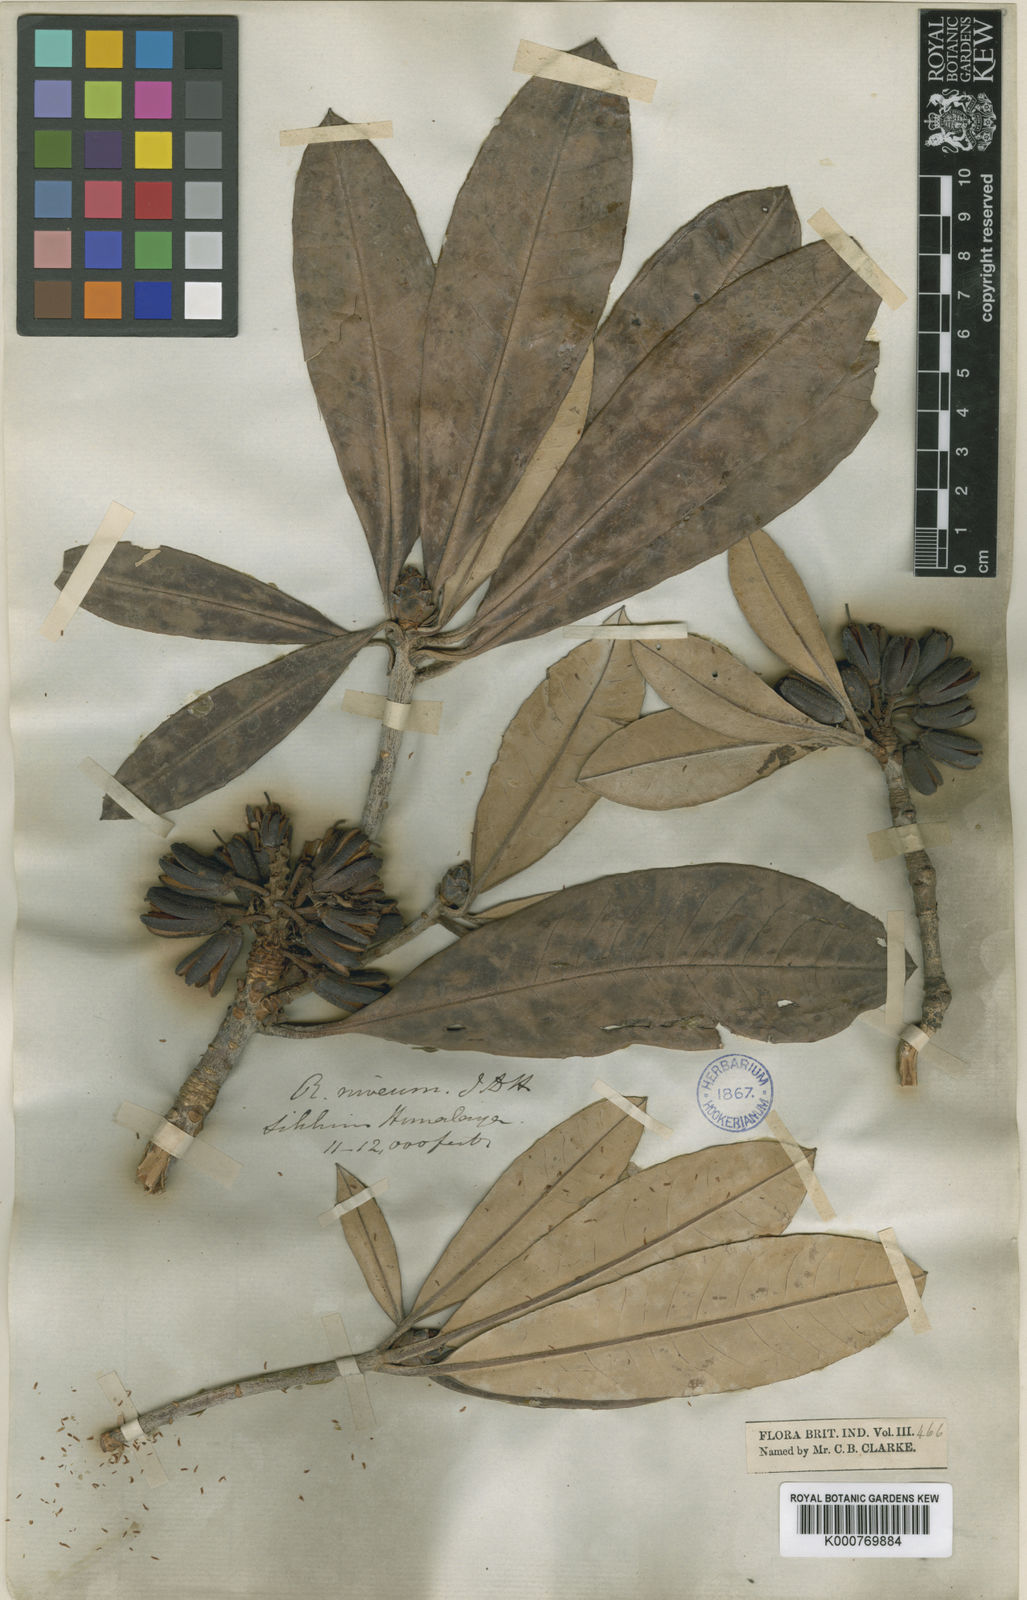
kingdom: Plantae
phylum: Tracheophyta
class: Magnoliopsida
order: Ericales
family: Ericaceae
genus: Rhododendron
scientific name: Rhododendron
